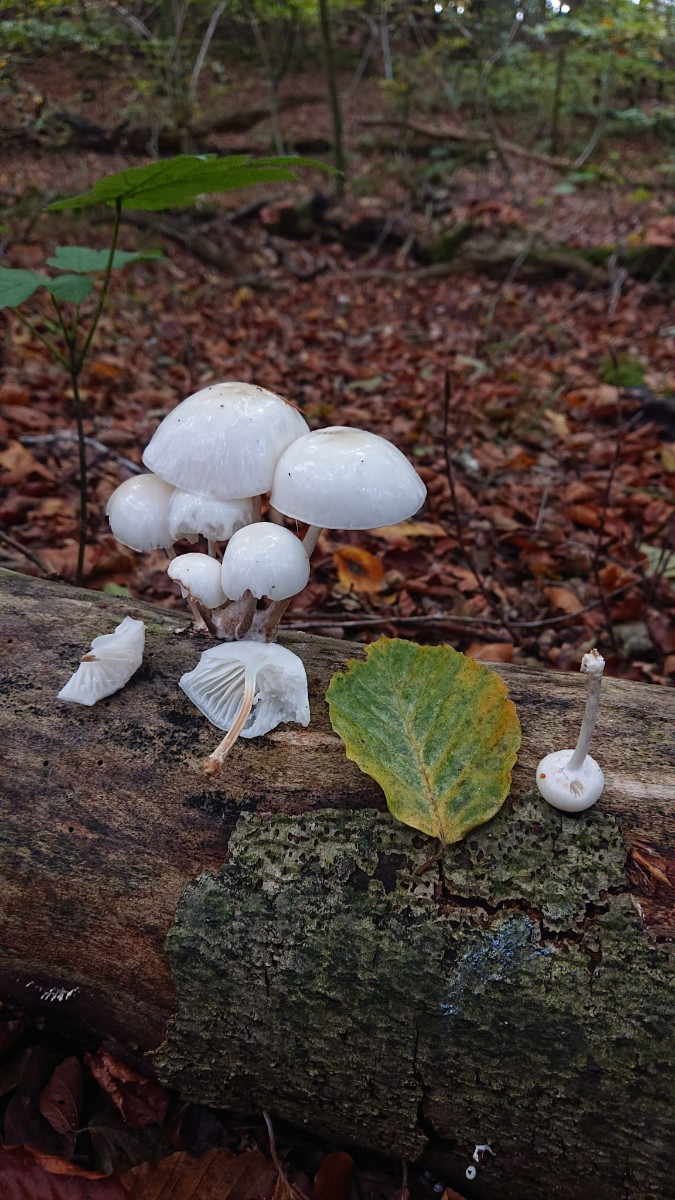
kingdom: Fungi
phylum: Basidiomycota
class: Agaricomycetes
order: Agaricales
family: Physalacriaceae
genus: Mucidula
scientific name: Mucidula mucida
